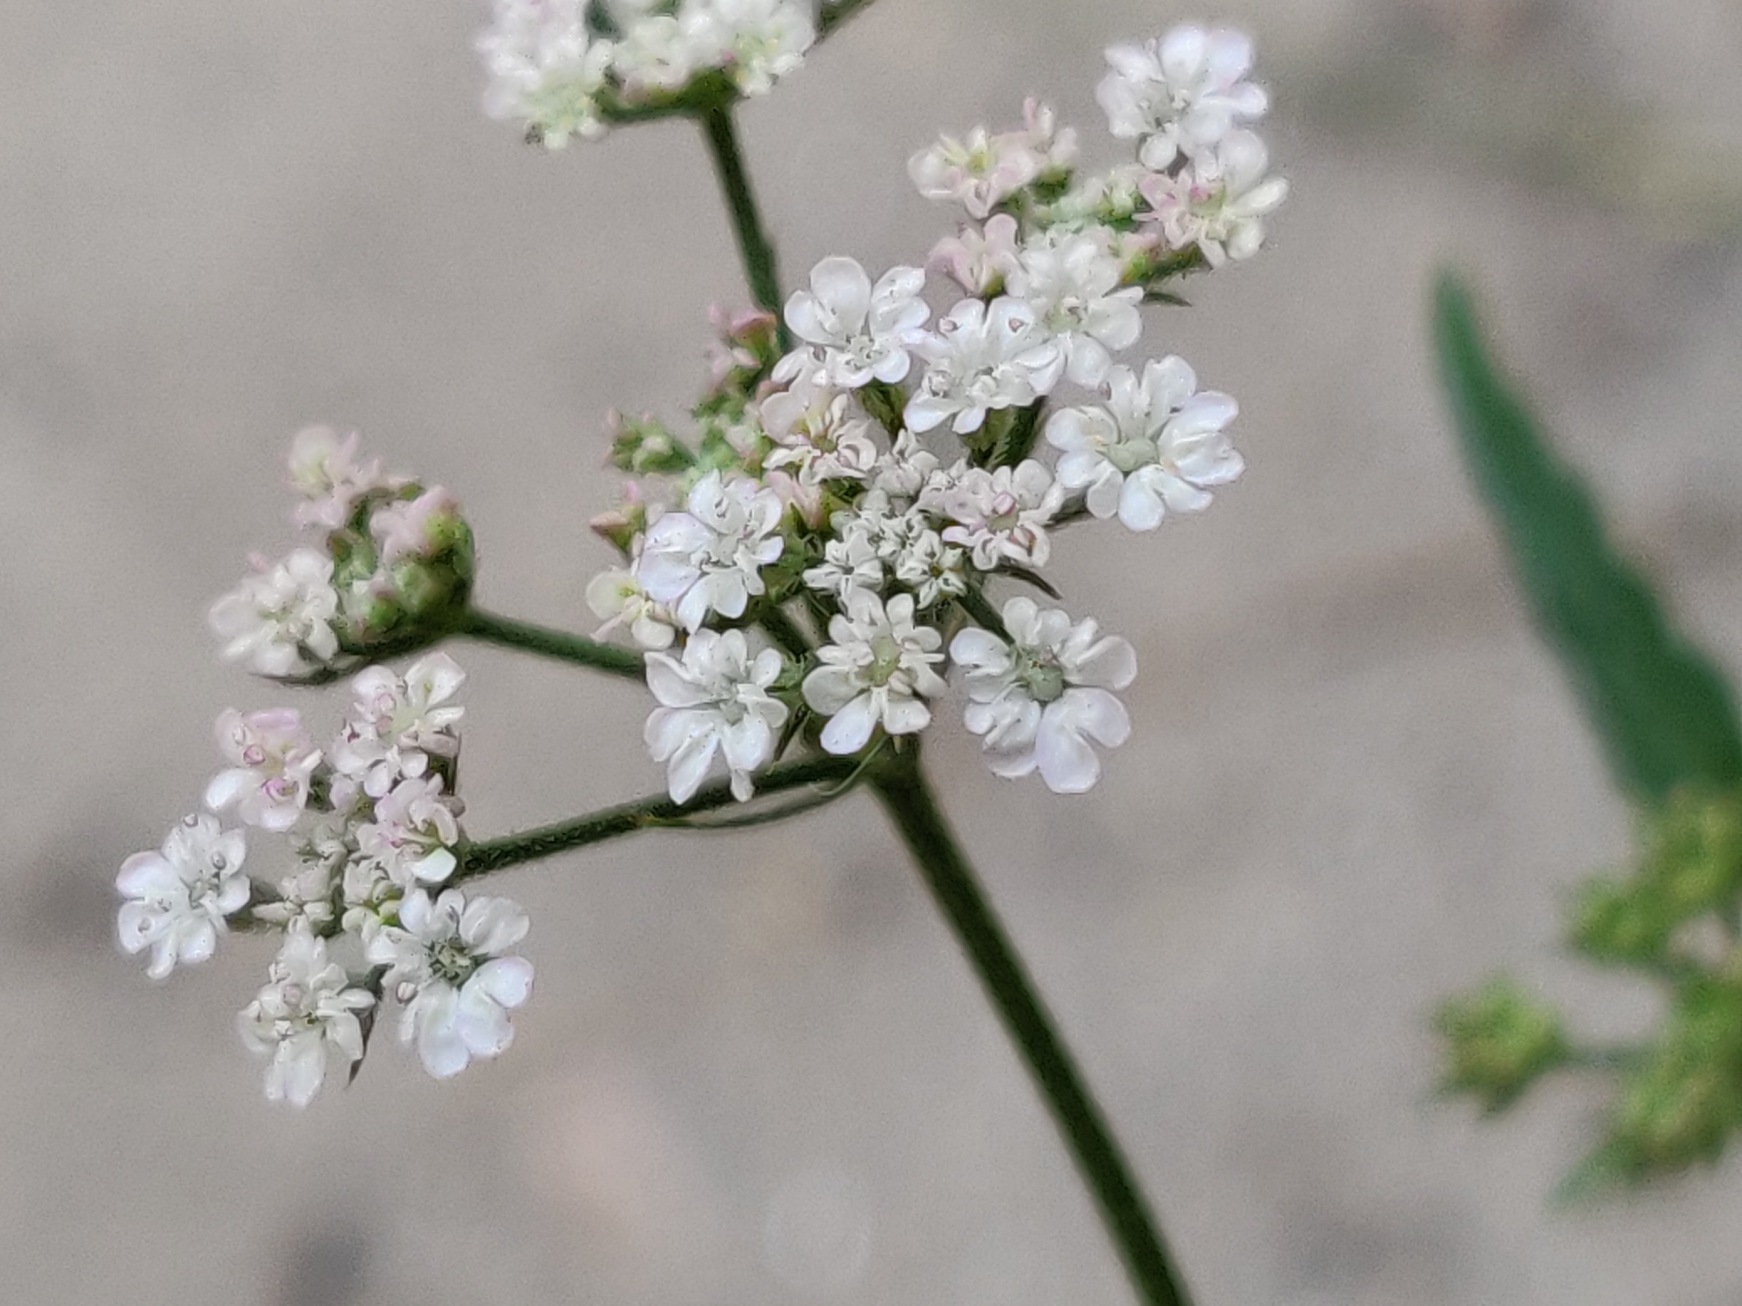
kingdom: Plantae
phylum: Tracheophyta
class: Magnoliopsida
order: Apiales
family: Apiaceae
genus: Torilis
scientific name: Torilis japonica
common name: Hvas randfrø
